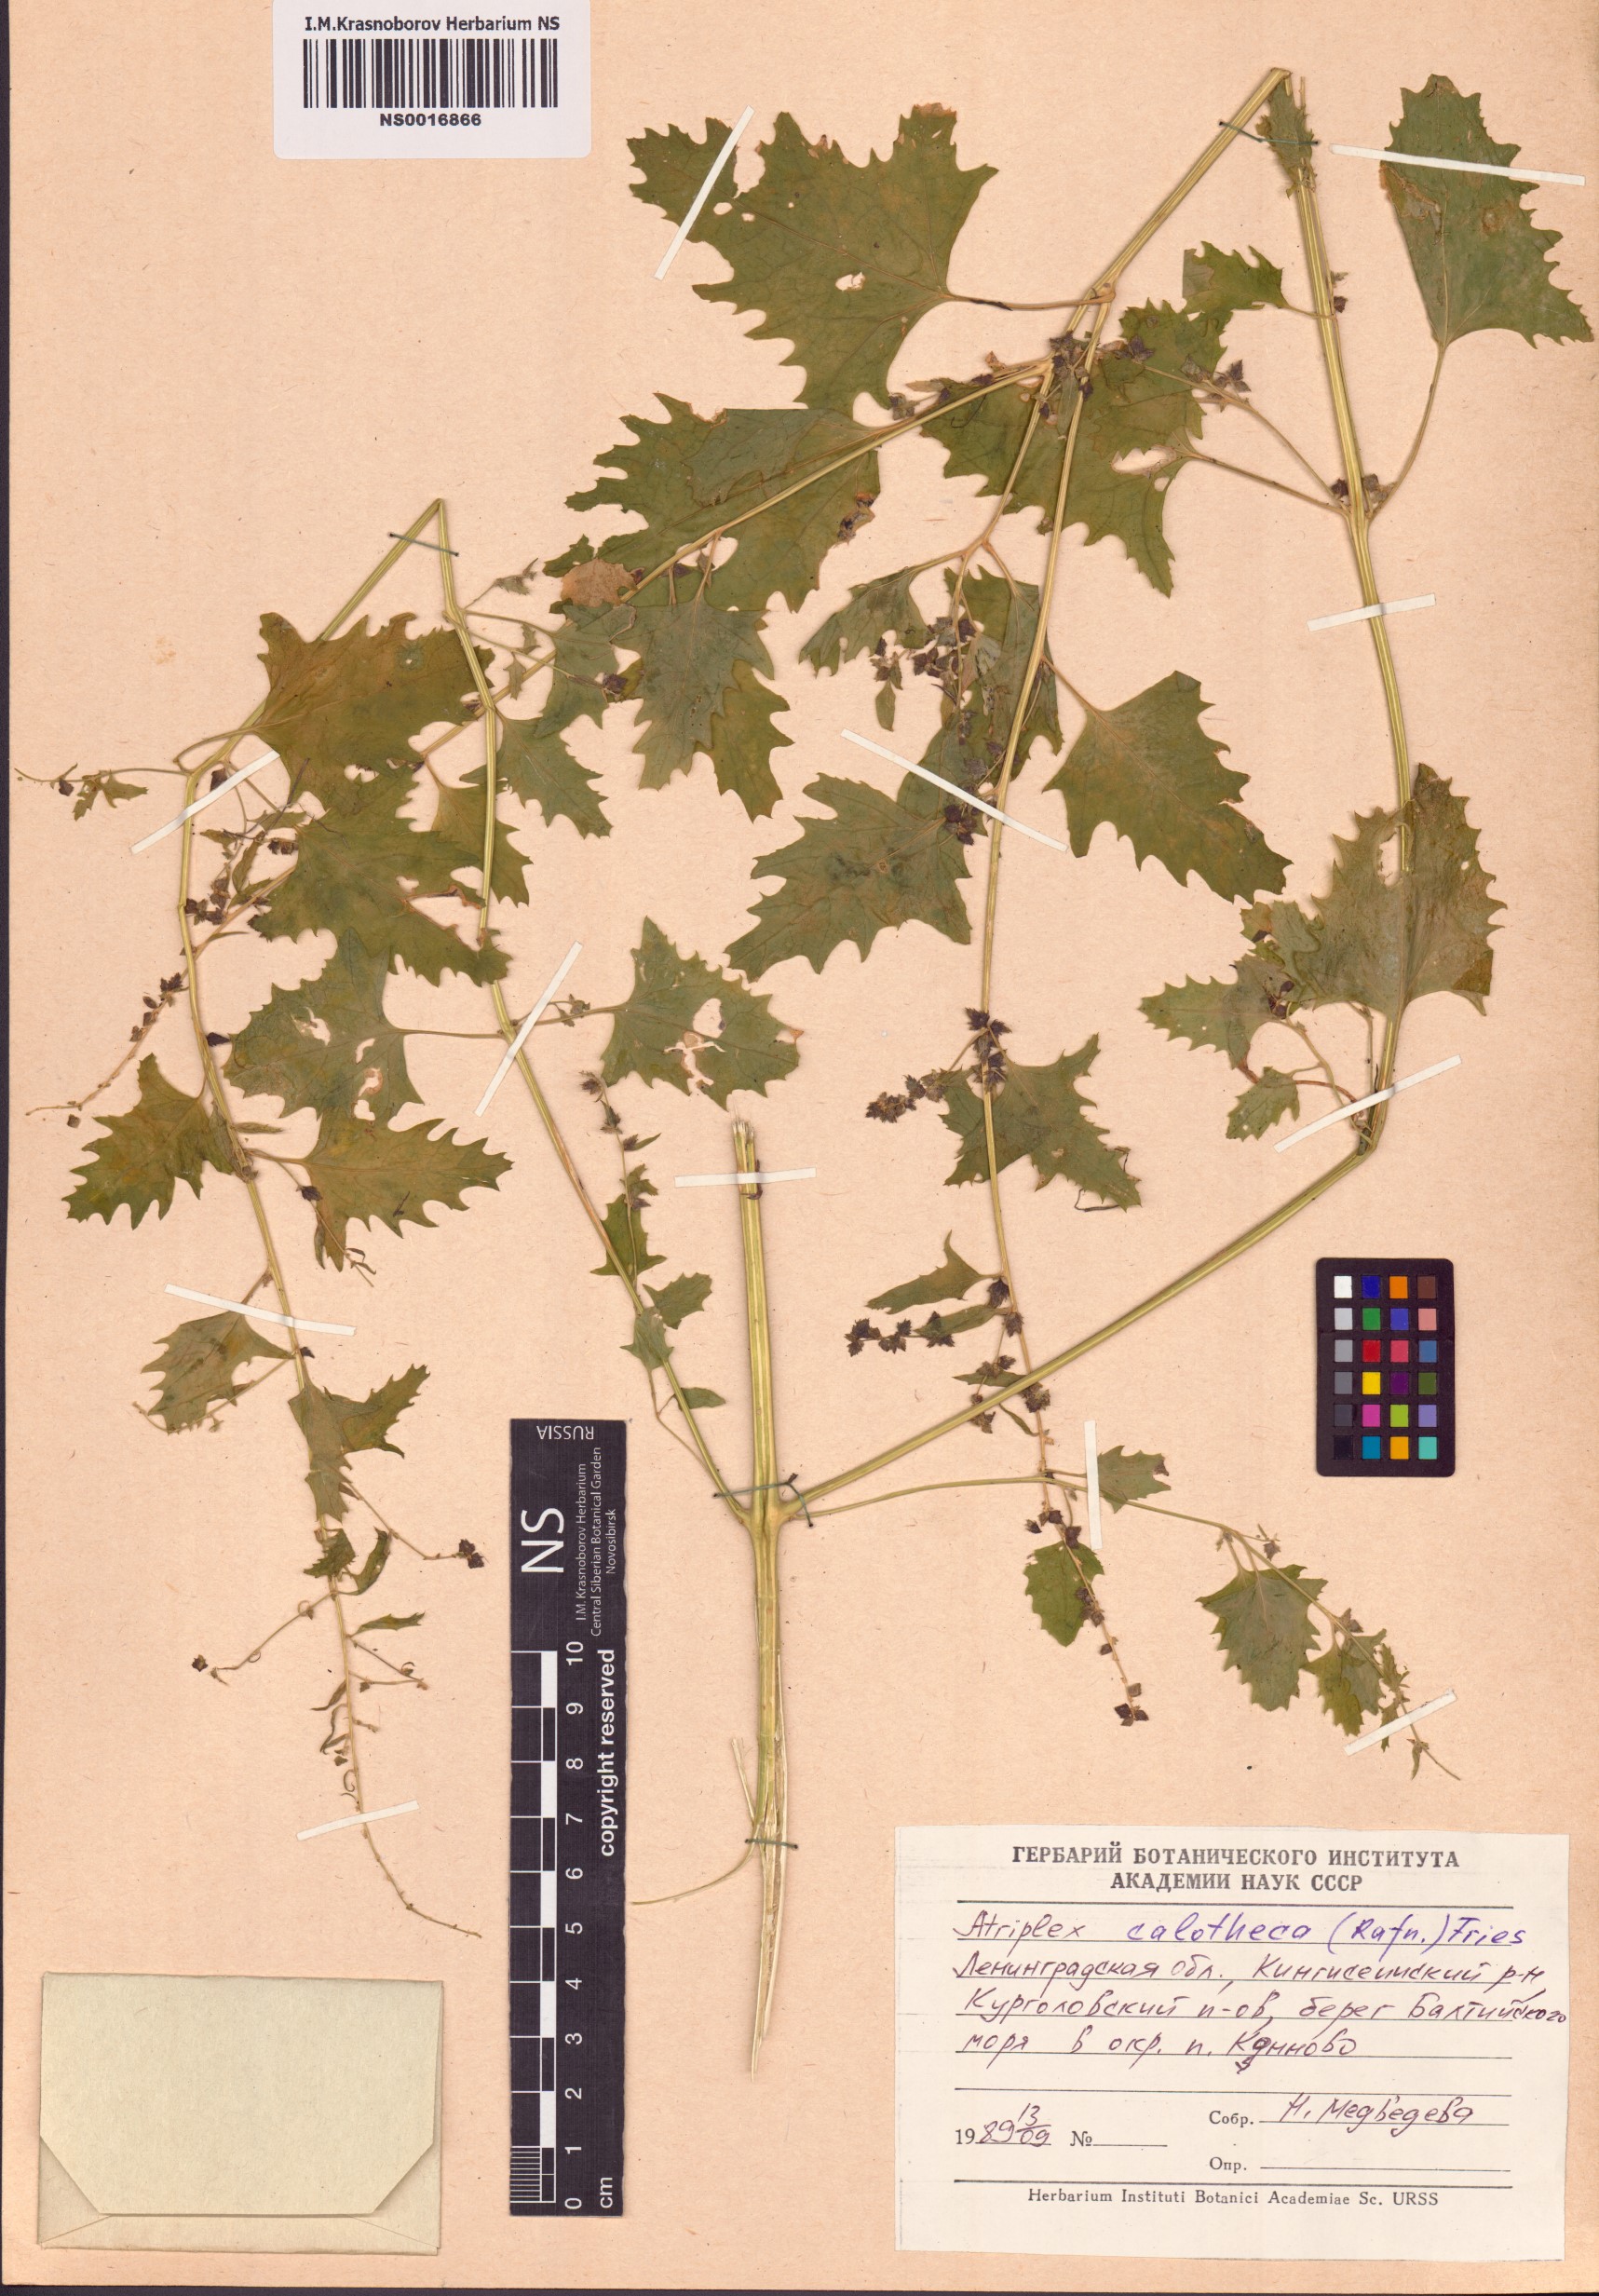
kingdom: Plantae
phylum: Tracheophyta
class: Magnoliopsida
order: Caryophyllales
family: Amaranthaceae
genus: Atriplex
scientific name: Atriplex calotheca
